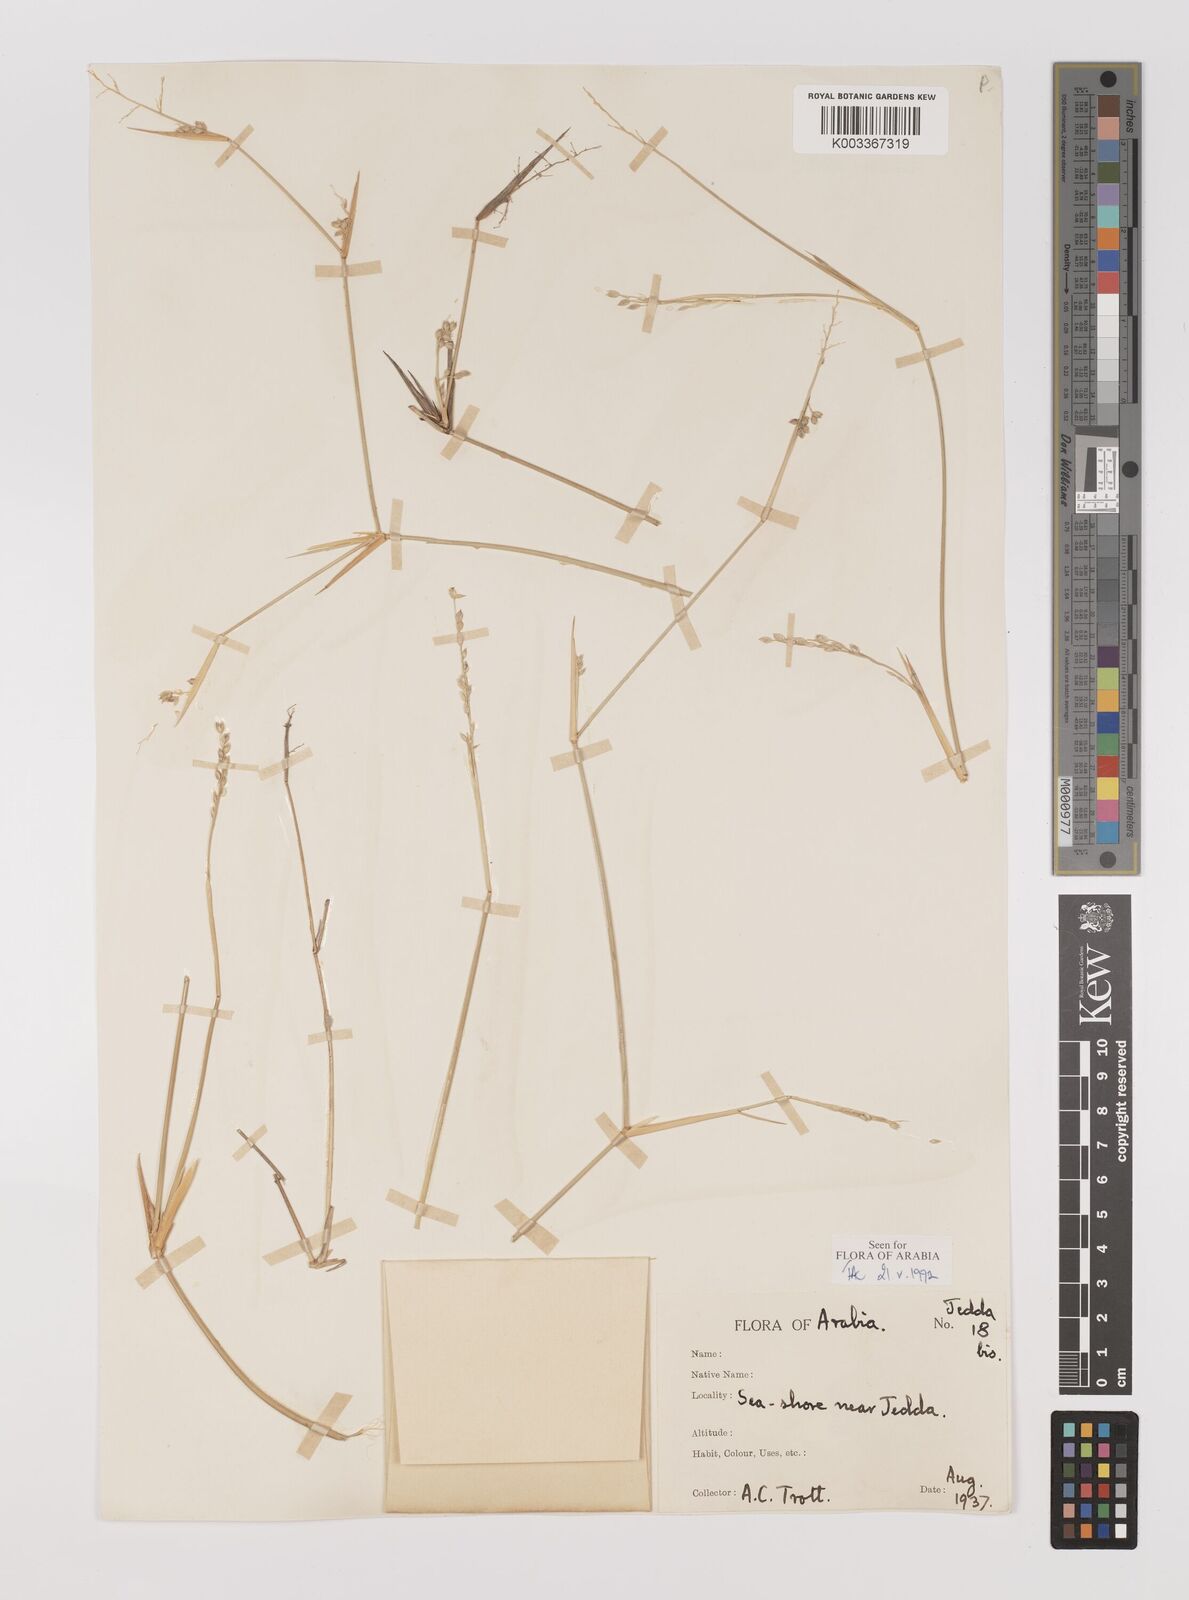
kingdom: Plantae
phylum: Tracheophyta
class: Liliopsida
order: Poales
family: Poaceae
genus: Panicum
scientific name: Panicum turgidum
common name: Desert grass
